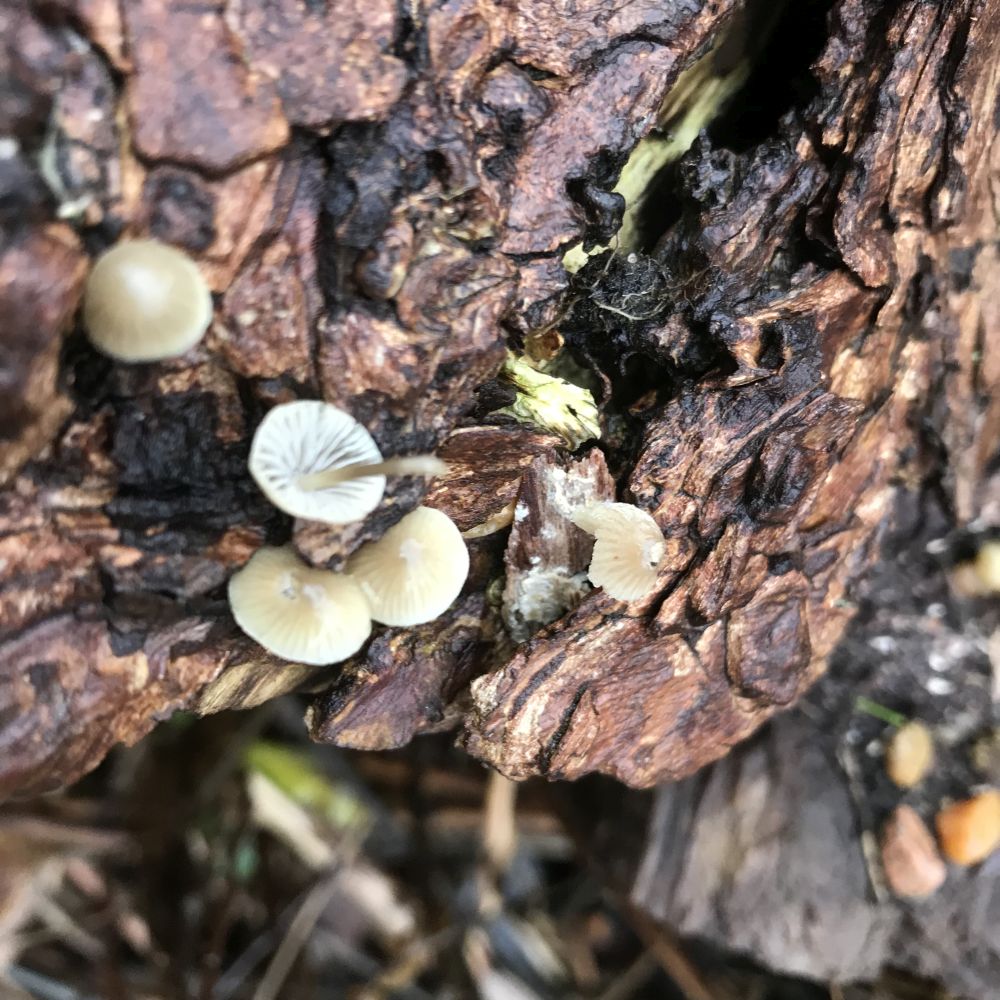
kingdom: Fungi
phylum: Basidiomycota
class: Agaricomycetes
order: Agaricales
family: Mycenaceae
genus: Mycena
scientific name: Mycena arcangeliana
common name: oliven-huesvamp
